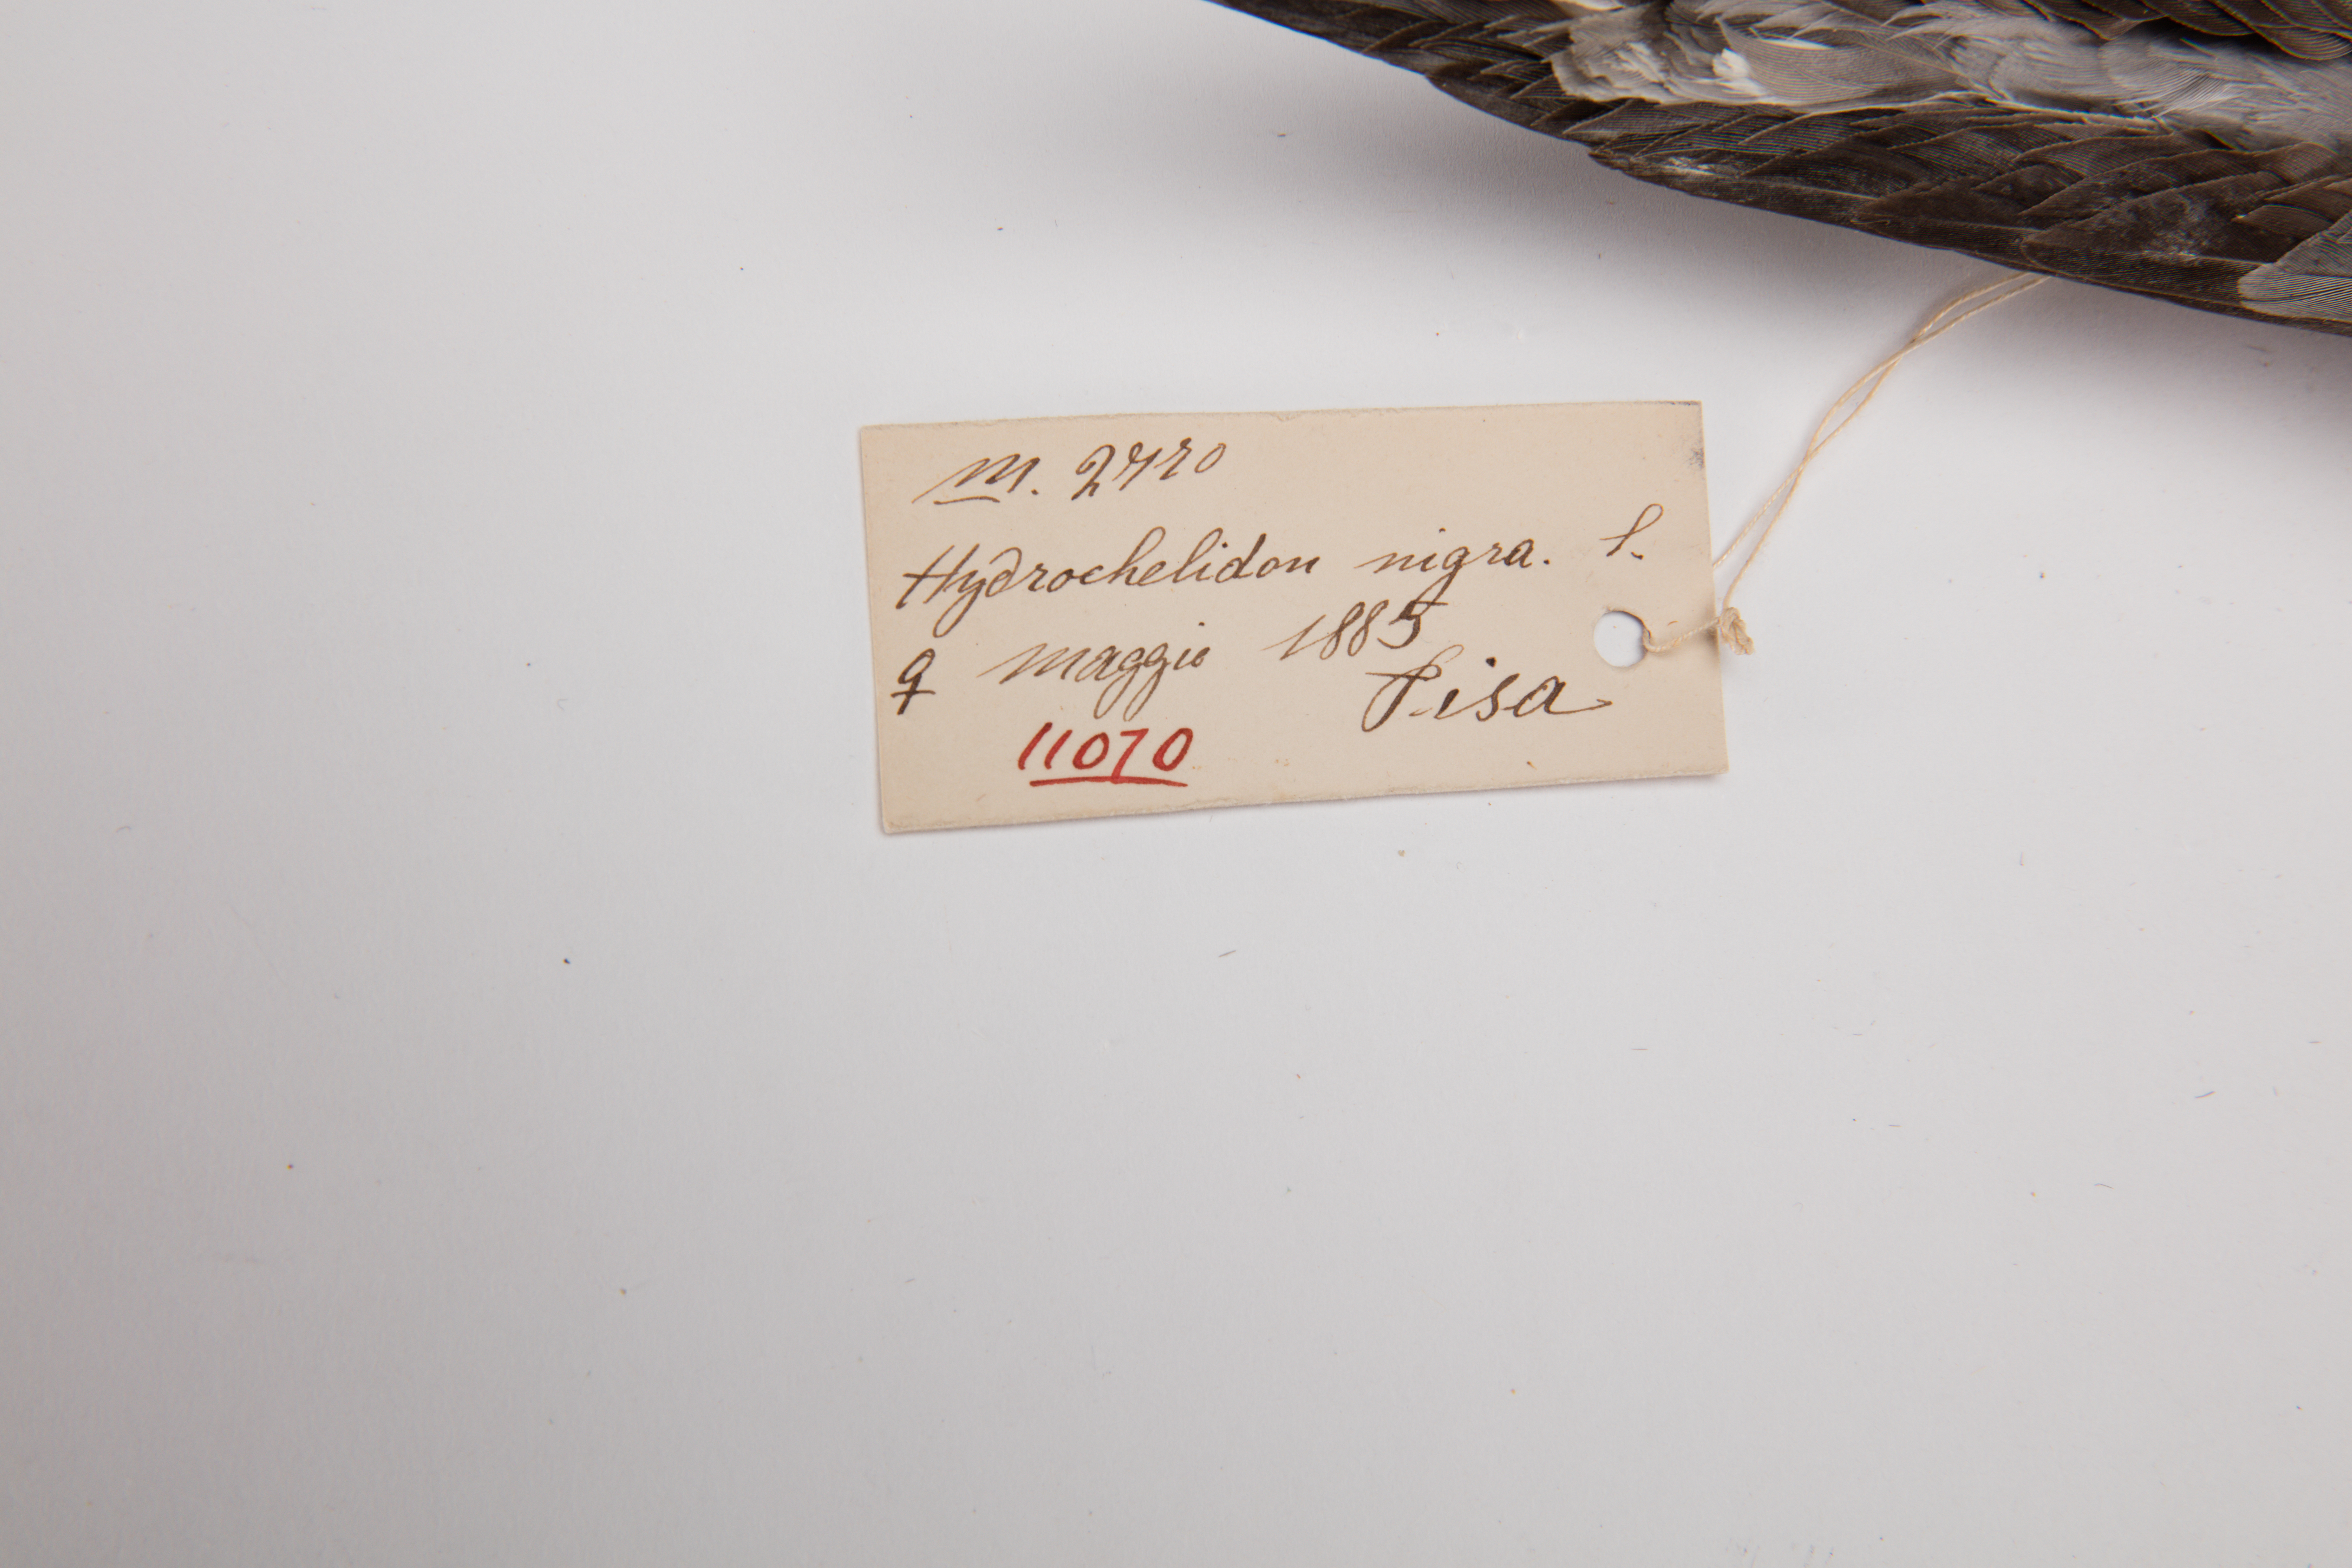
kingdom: Animalia
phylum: Chordata
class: Aves
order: Charadriiformes
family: Laridae
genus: Chlidonias
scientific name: Chlidonias niger
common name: Black tern
